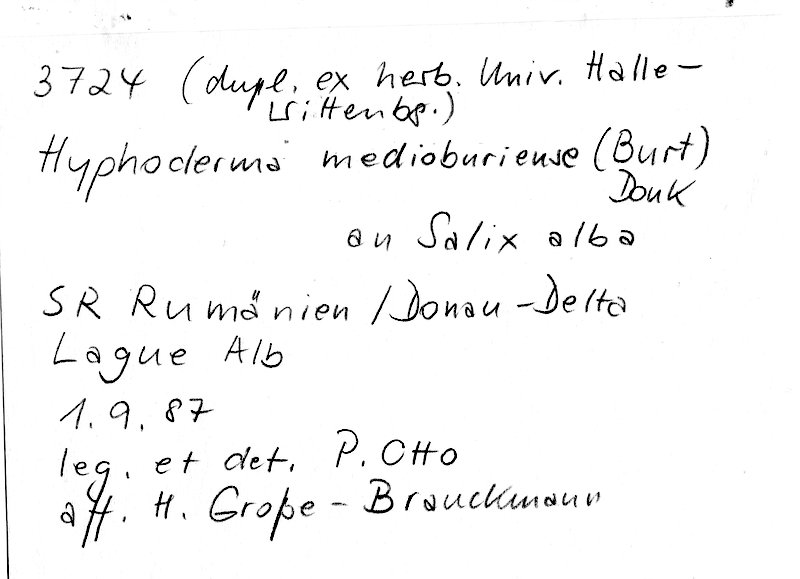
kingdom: Fungi
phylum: Basidiomycota
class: Agaricomycetes
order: Polyporales
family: Hyphodermataceae
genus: Hyphoderma
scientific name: Hyphoderma medioburiense
